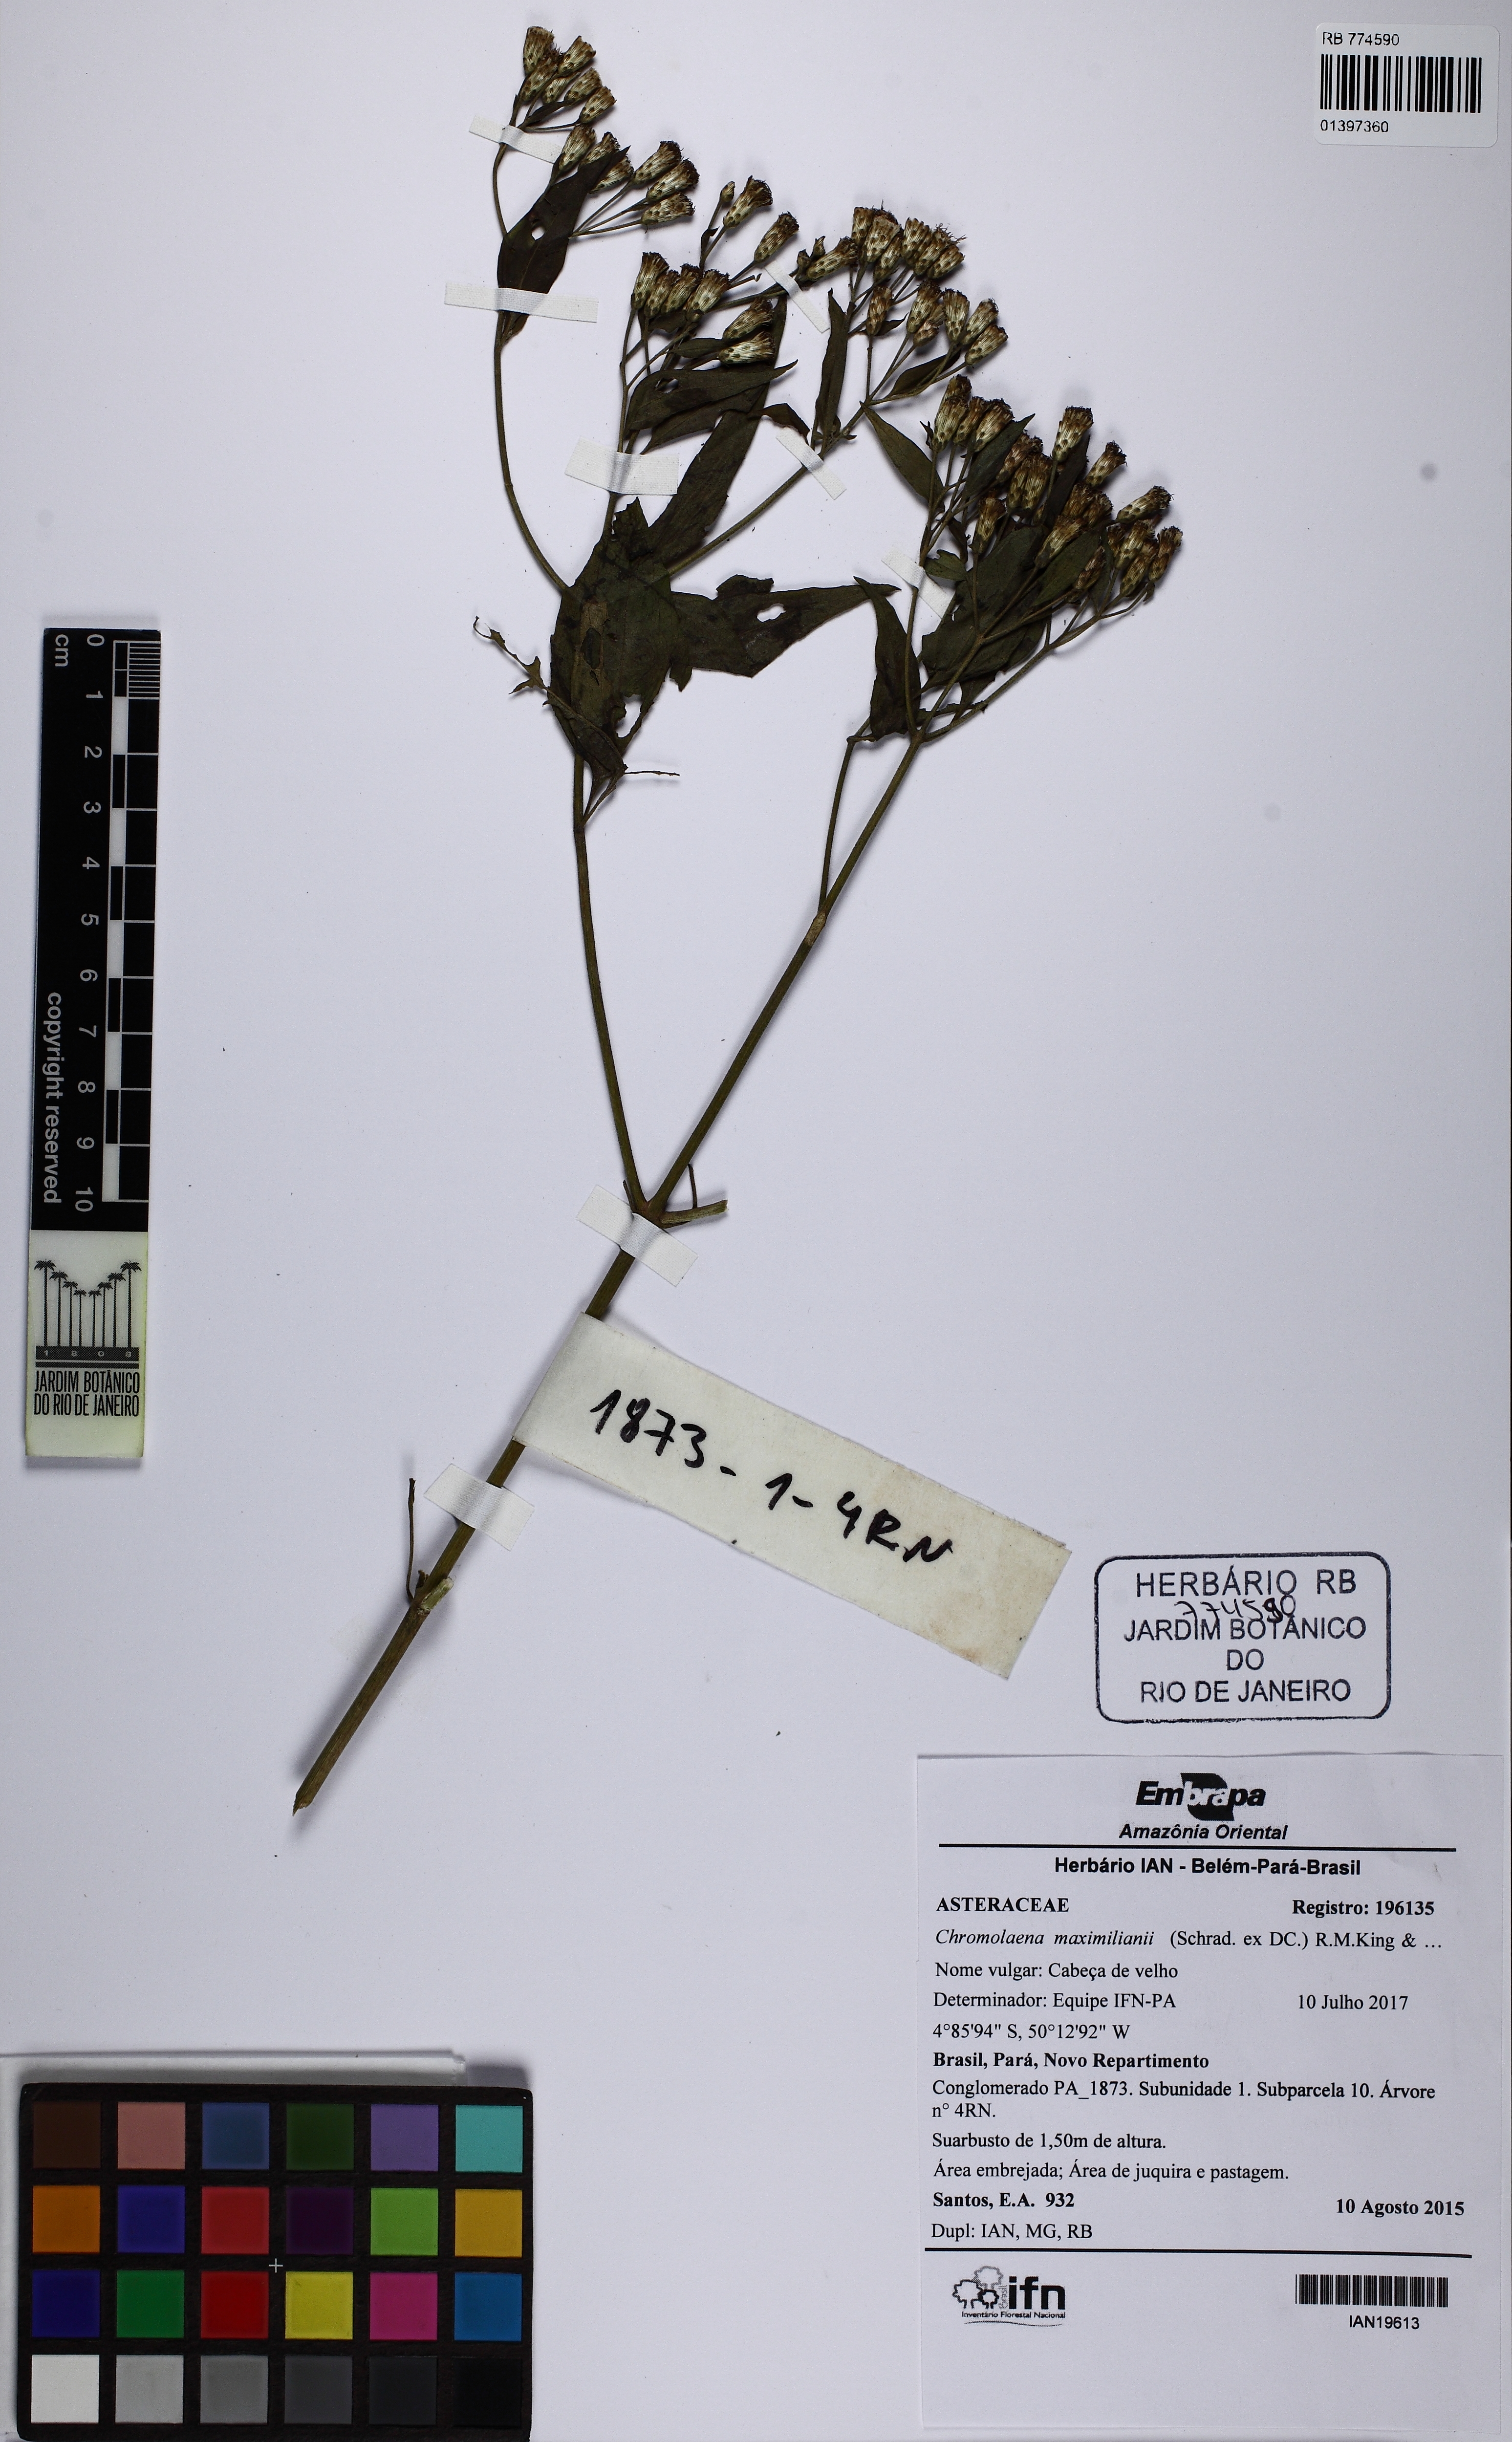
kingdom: Plantae
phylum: Tracheophyta
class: Magnoliopsida
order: Asterales
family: Asteraceae
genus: Chromolaena
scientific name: Chromolaena maximiliani
